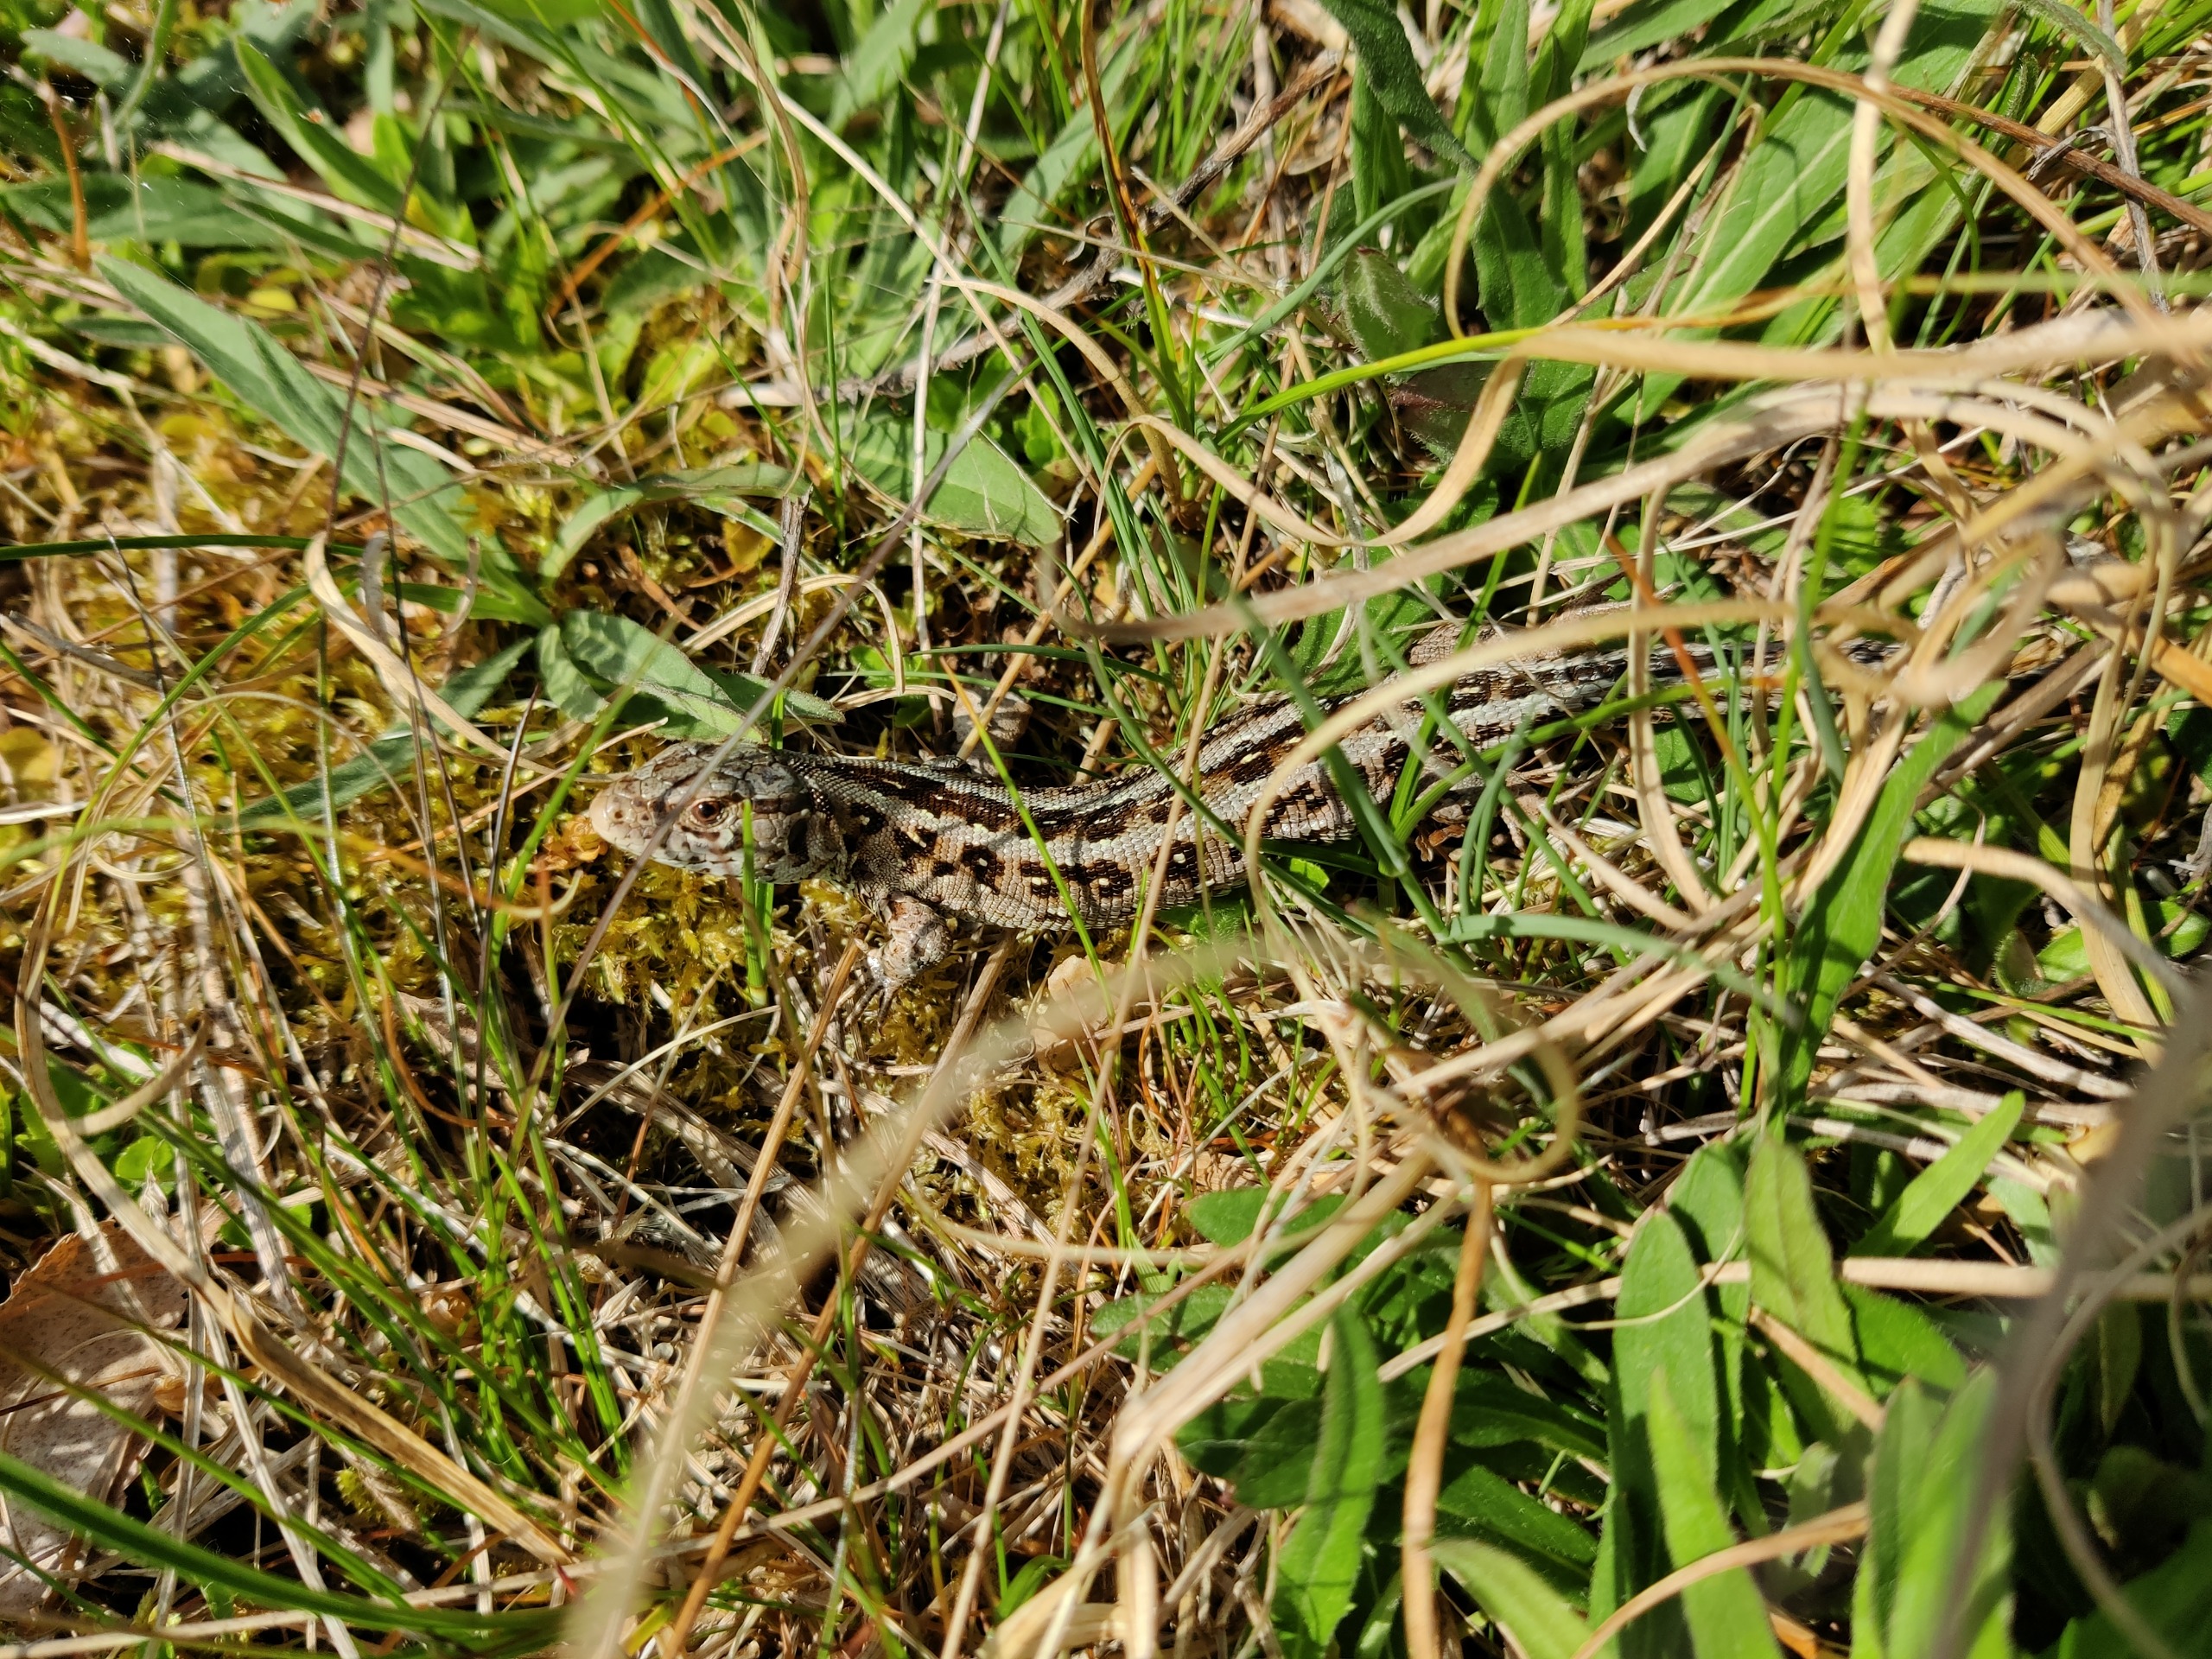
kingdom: Animalia
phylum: Chordata
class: Squamata
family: Lacertidae
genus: Lacerta
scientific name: Lacerta agilis
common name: Markfirben
